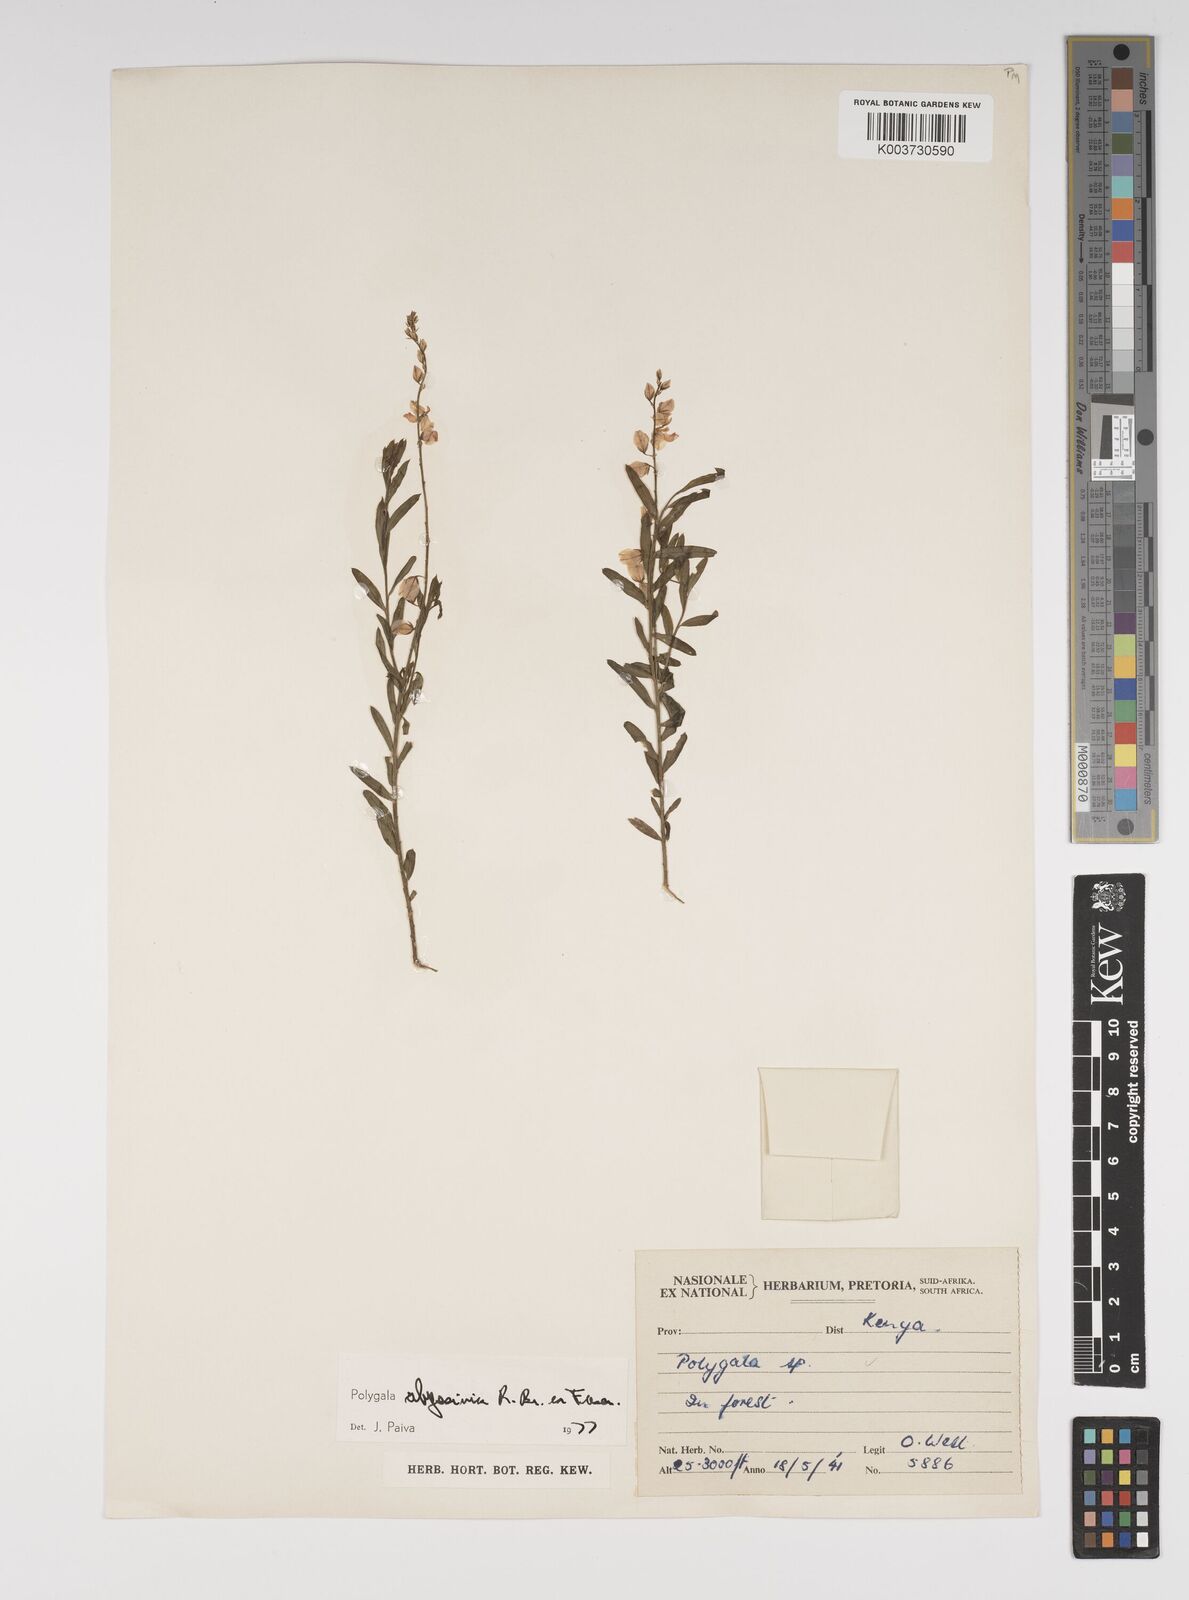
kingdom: Plantae
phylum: Tracheophyta
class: Magnoliopsida
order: Fabales
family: Polygalaceae
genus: Polygala
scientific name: Polygala abyssinica
